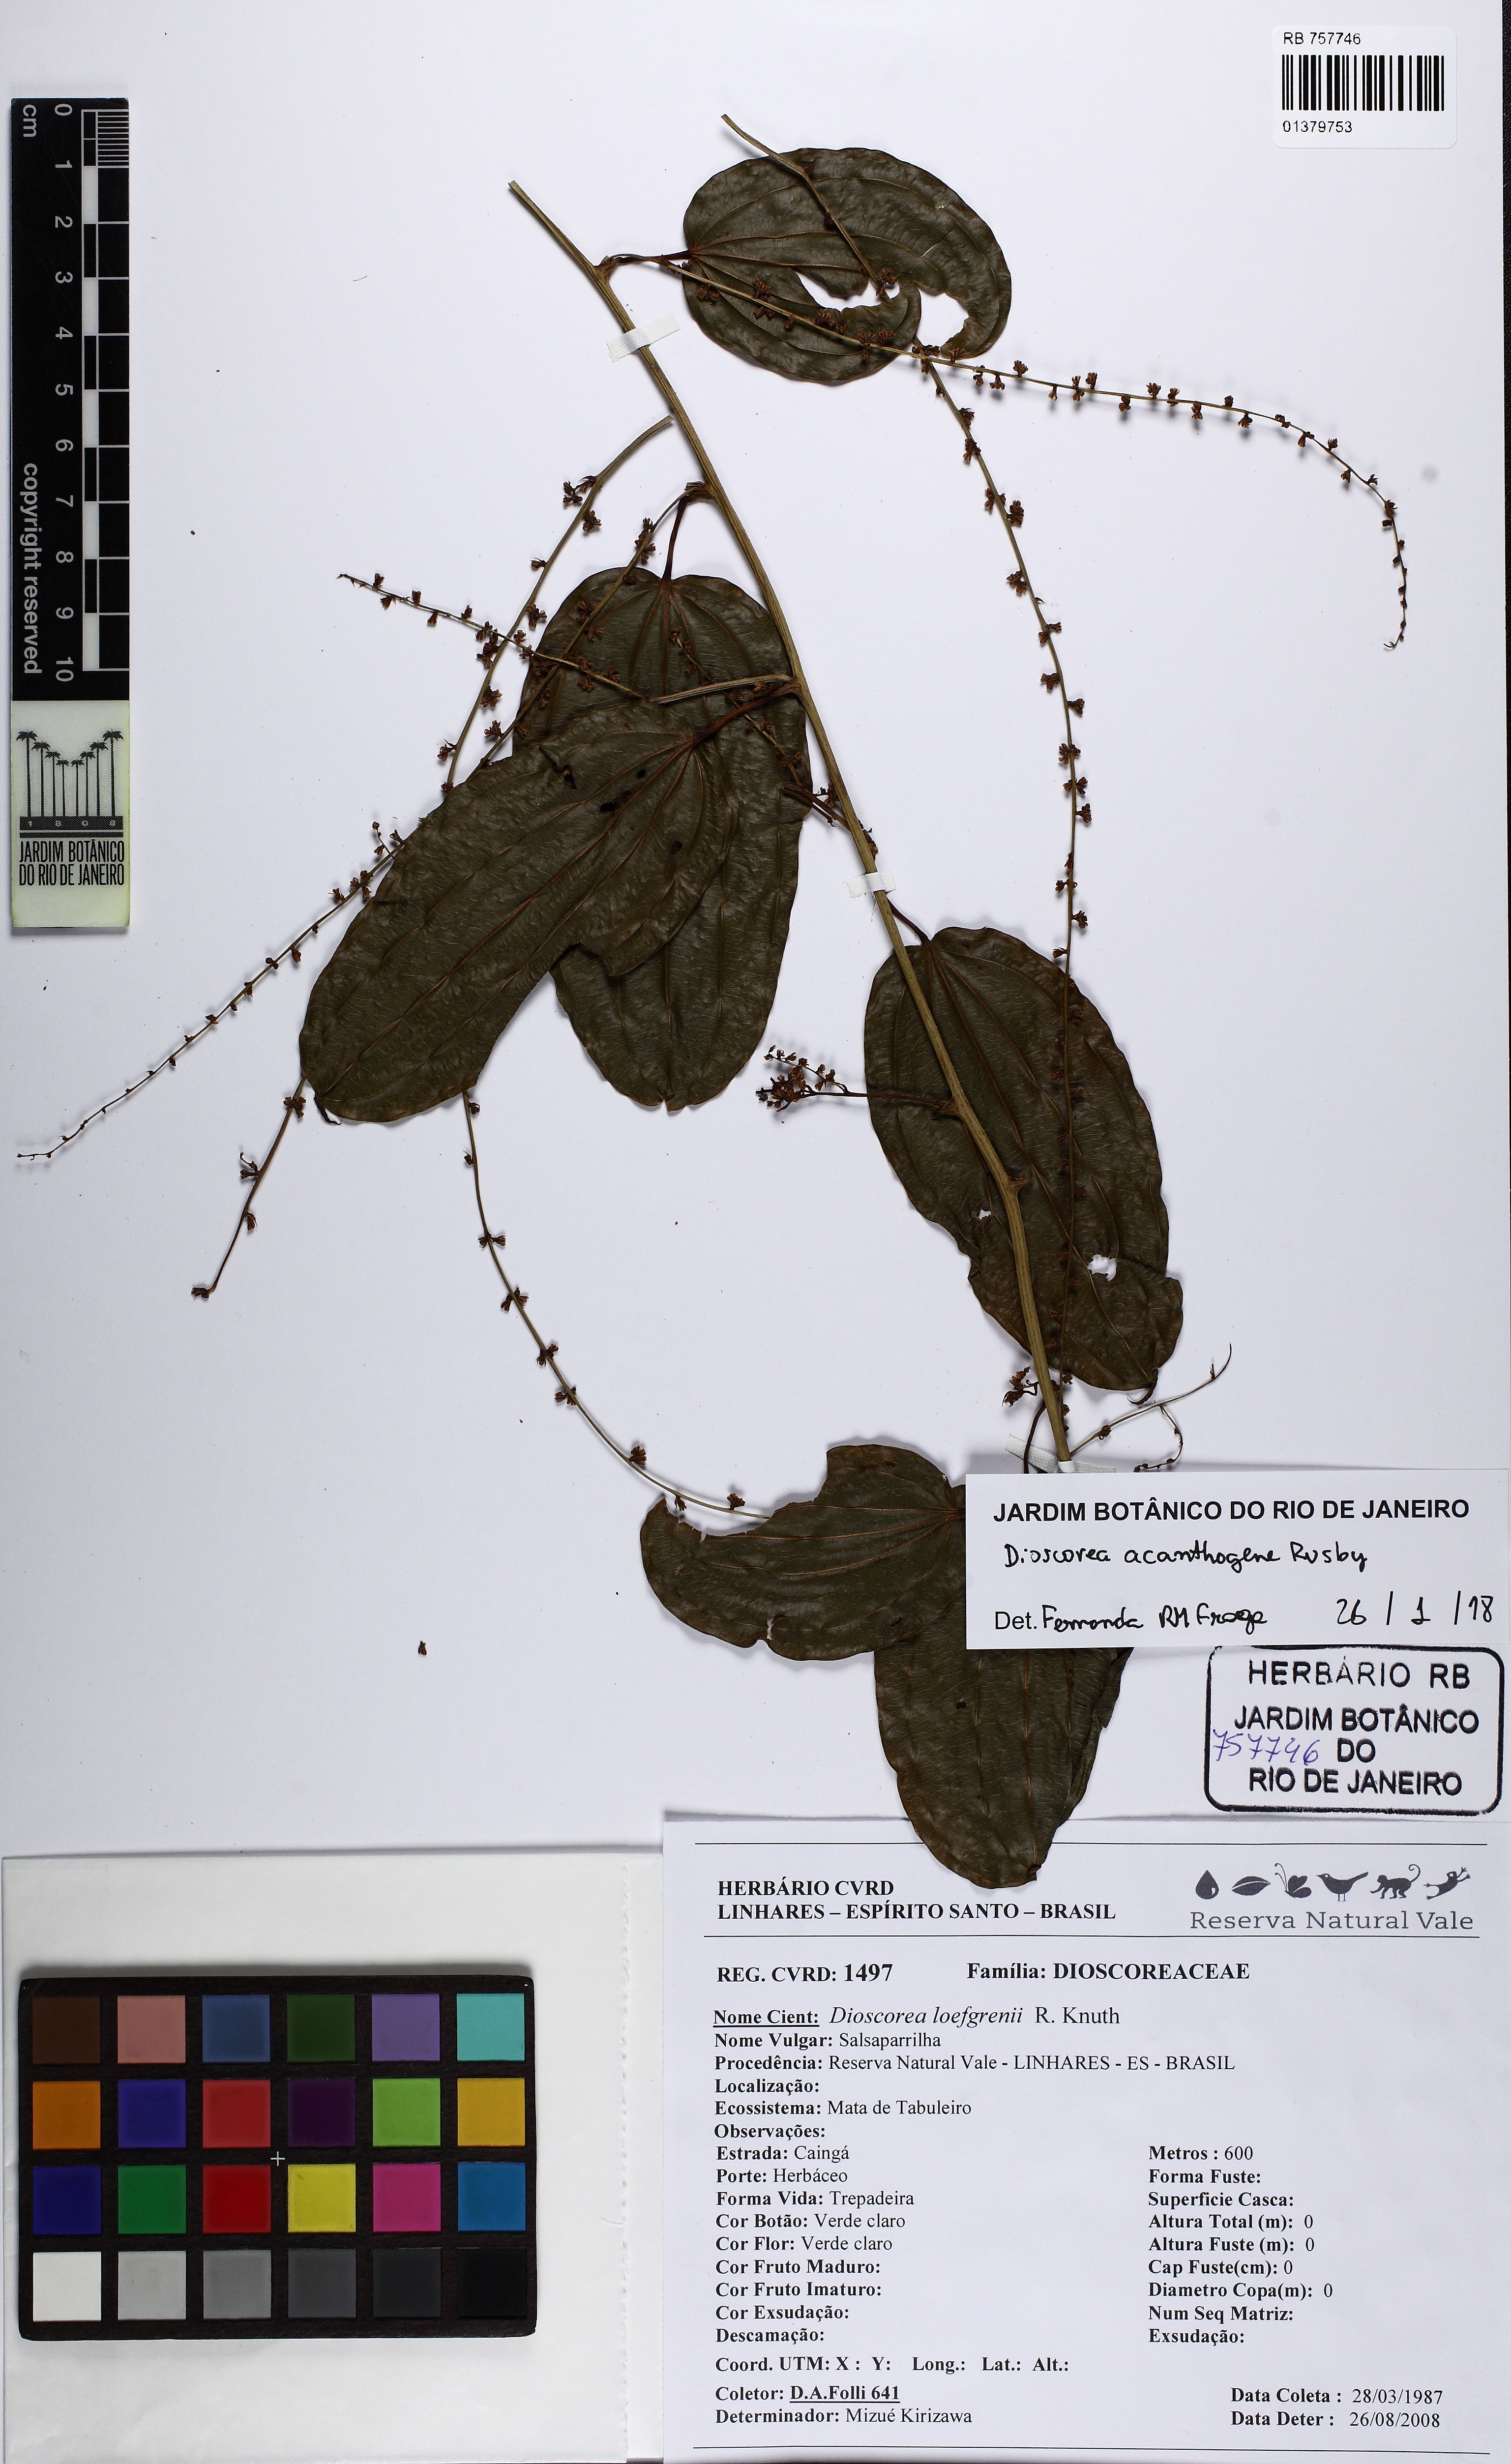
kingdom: Plantae
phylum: Tracheophyta
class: Liliopsida
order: Dioscoreales
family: Dioscoreaceae
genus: Dioscorea
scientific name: Dioscorea acanthogene
